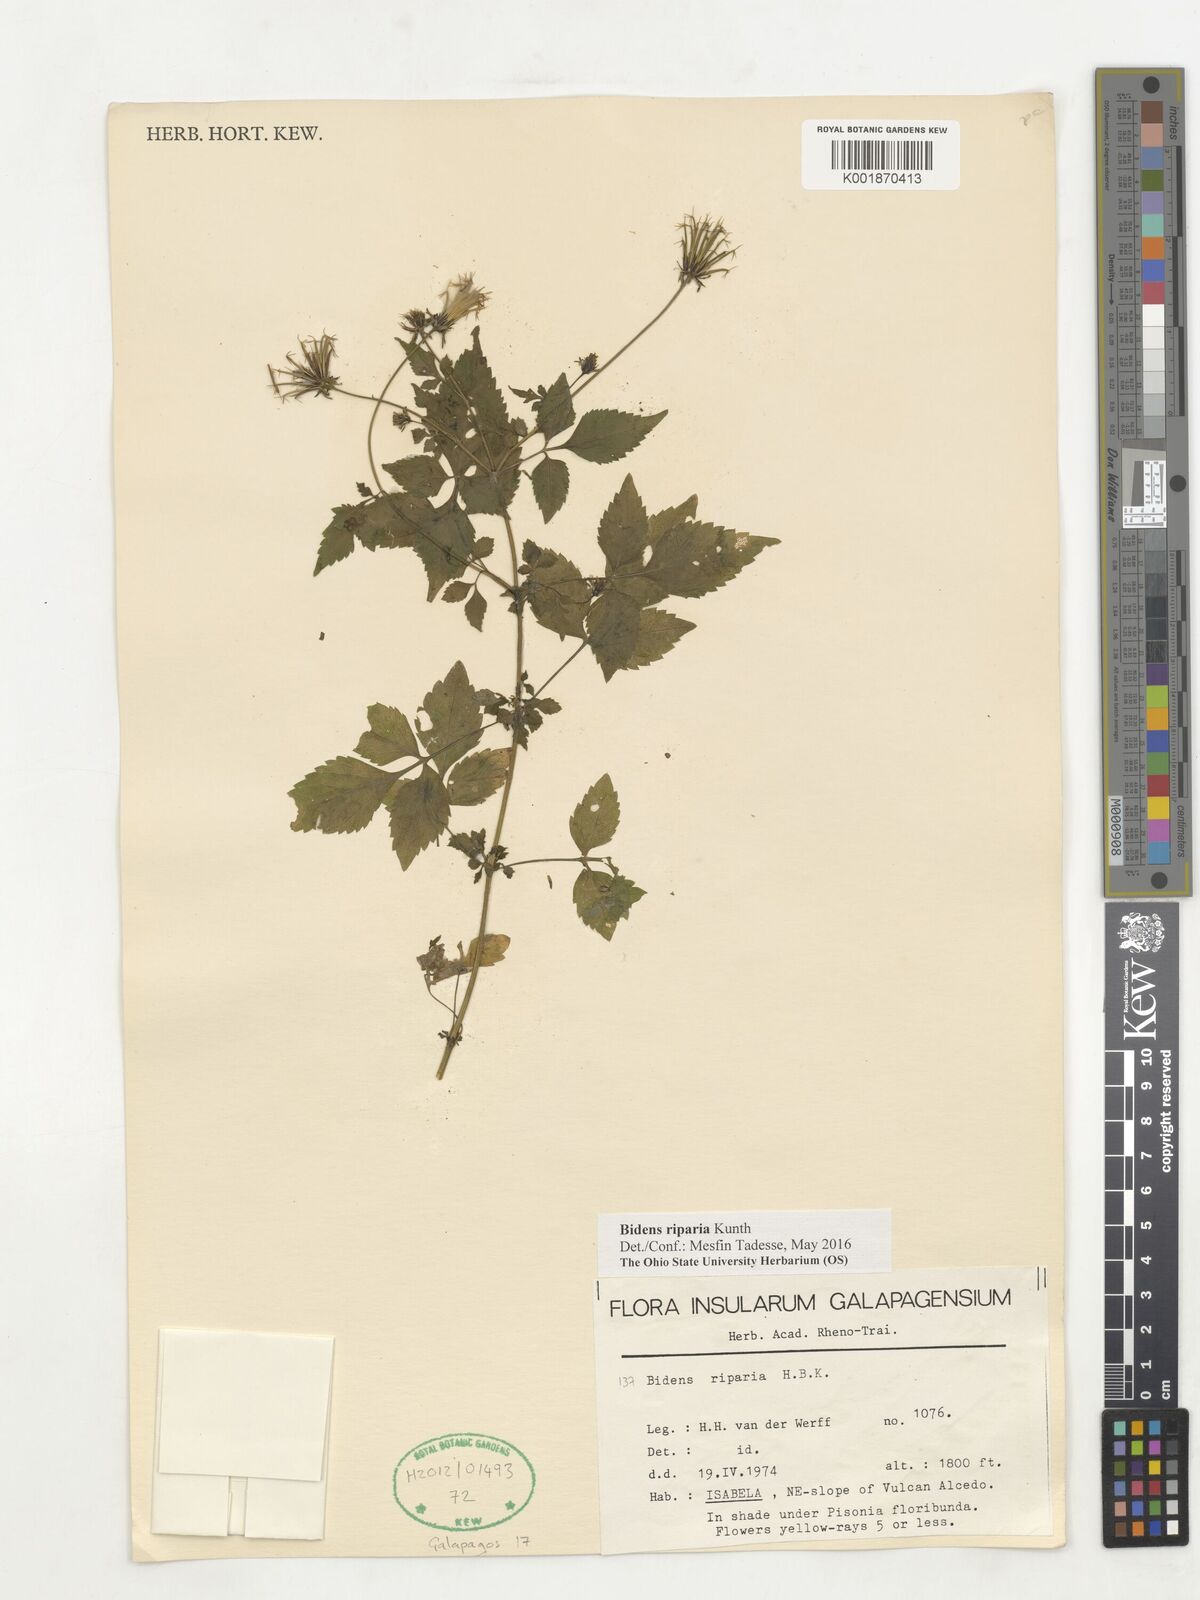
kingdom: Plantae
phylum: Tracheophyta
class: Magnoliopsida
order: Asterales
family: Asteraceae
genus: Bidens
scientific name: Bidens riparia
